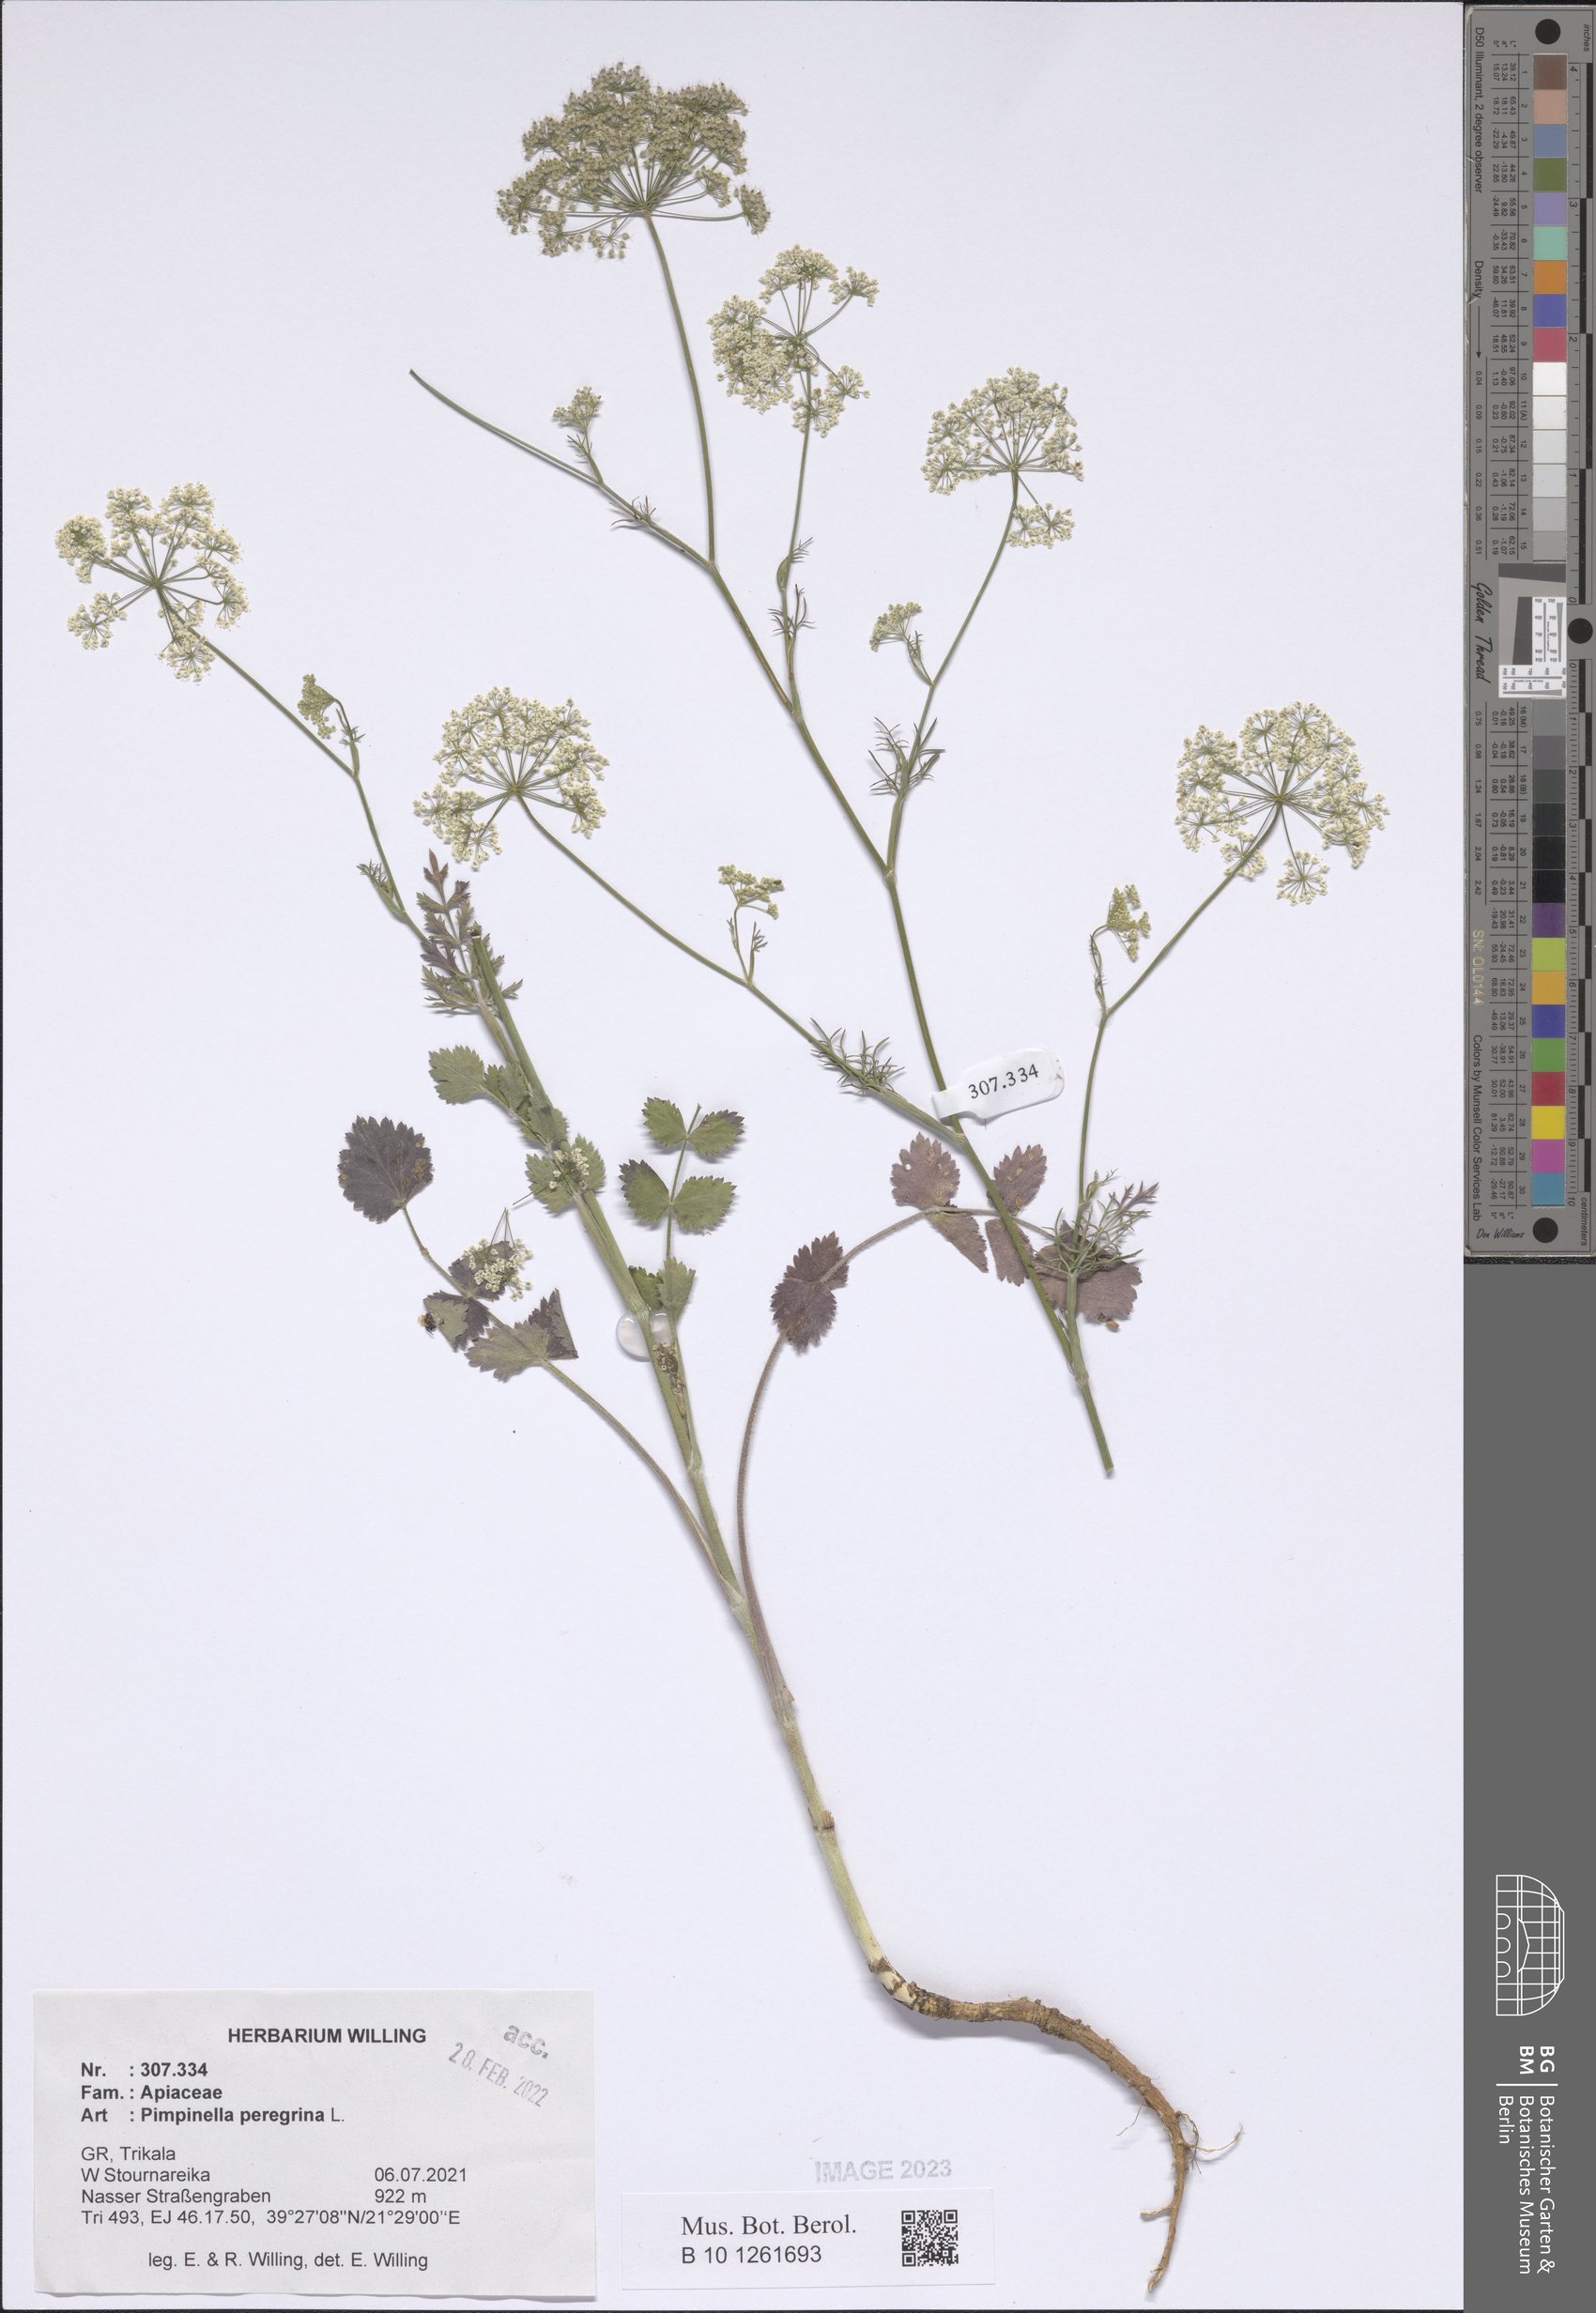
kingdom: Plantae
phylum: Tracheophyta
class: Magnoliopsida
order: Apiales
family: Apiaceae
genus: Pimpinella
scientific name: Pimpinella peregrina
